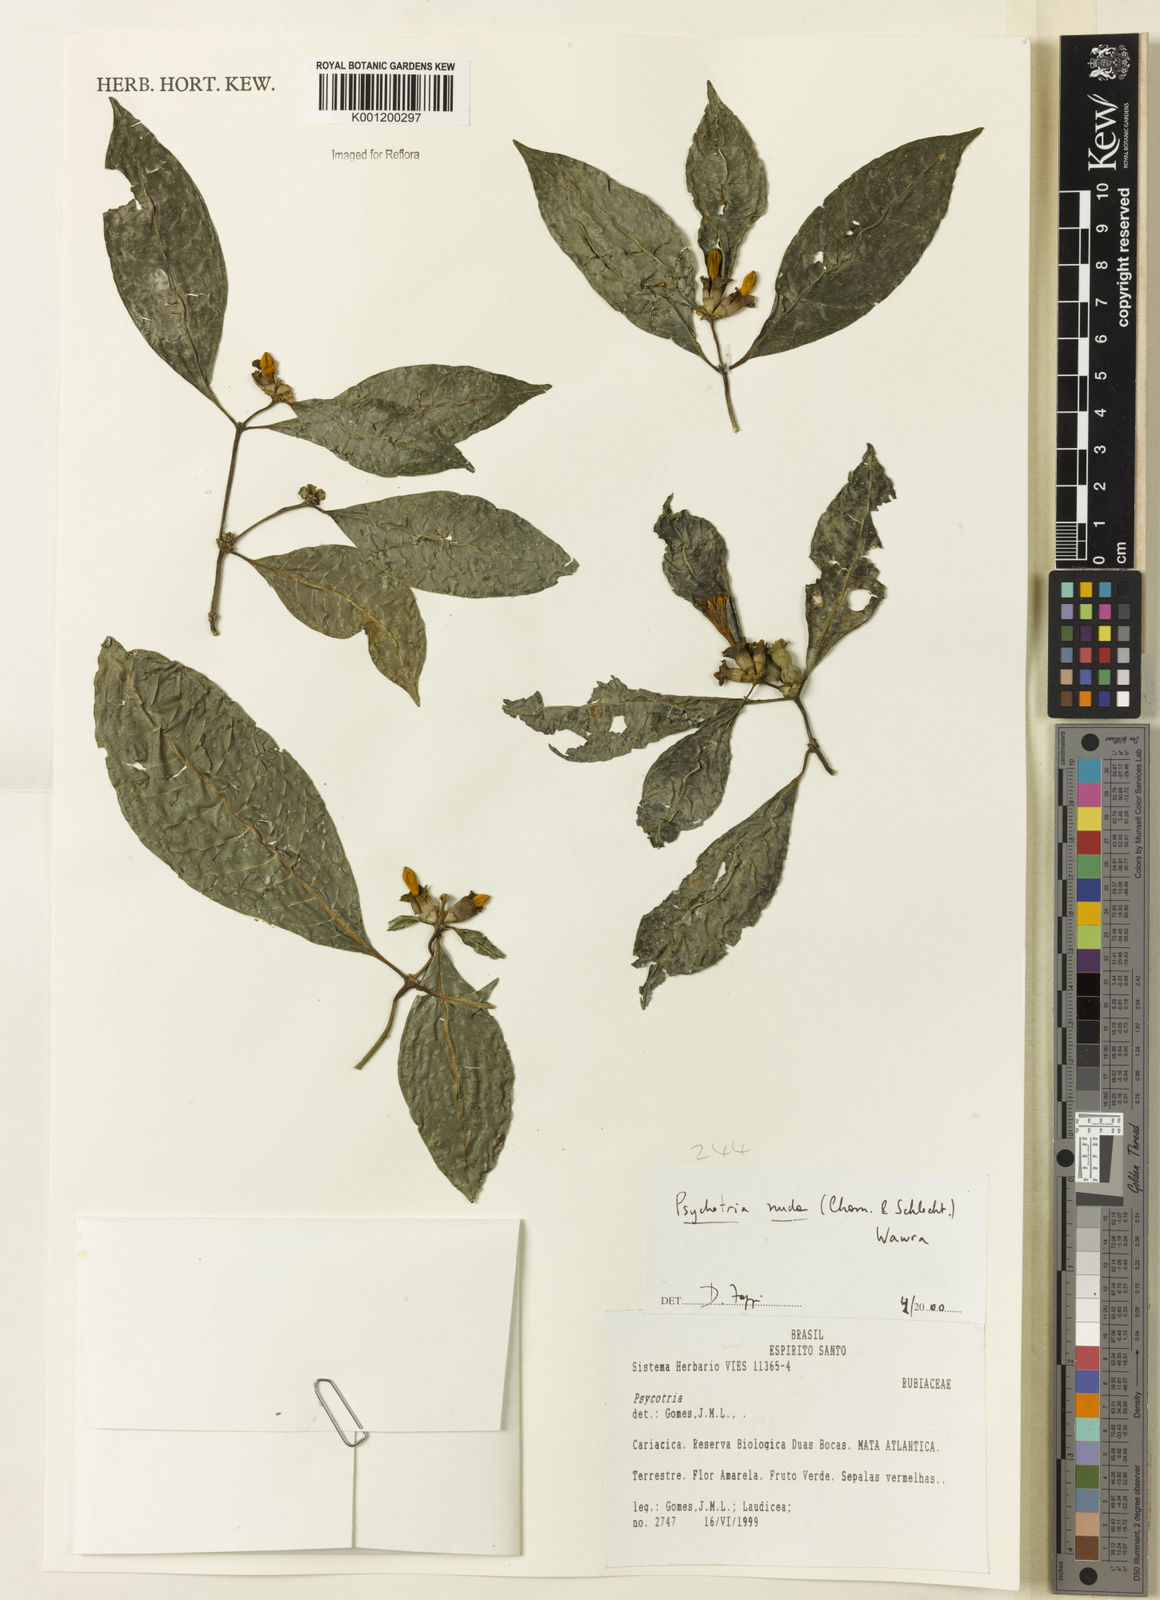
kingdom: Plantae
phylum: Tracheophyta
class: Magnoliopsida
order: Gentianales
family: Rubiaceae
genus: Psychotria
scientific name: Psychotria nuda
